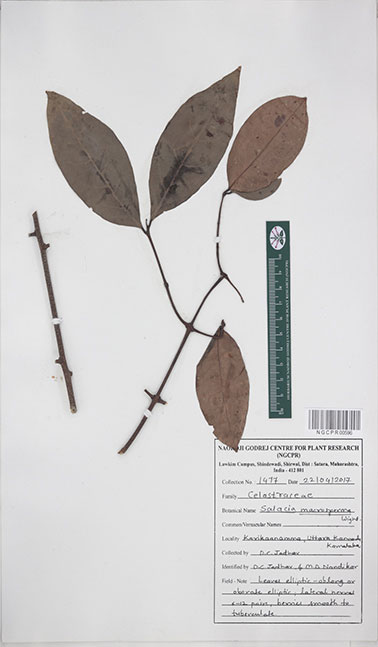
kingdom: Plantae
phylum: Tracheophyta
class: Magnoliopsida
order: Celastrales
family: Celastraceae
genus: Salacia
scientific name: Salacia macrosperma
